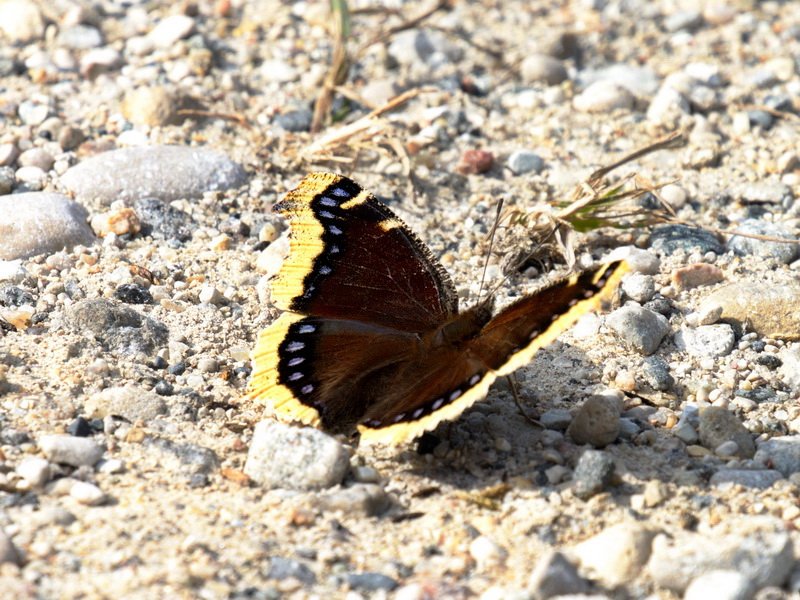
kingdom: Animalia
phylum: Arthropoda
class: Insecta
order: Lepidoptera
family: Nymphalidae
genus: Nymphalis
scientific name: Nymphalis antiopa
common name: Mourning Cloak
